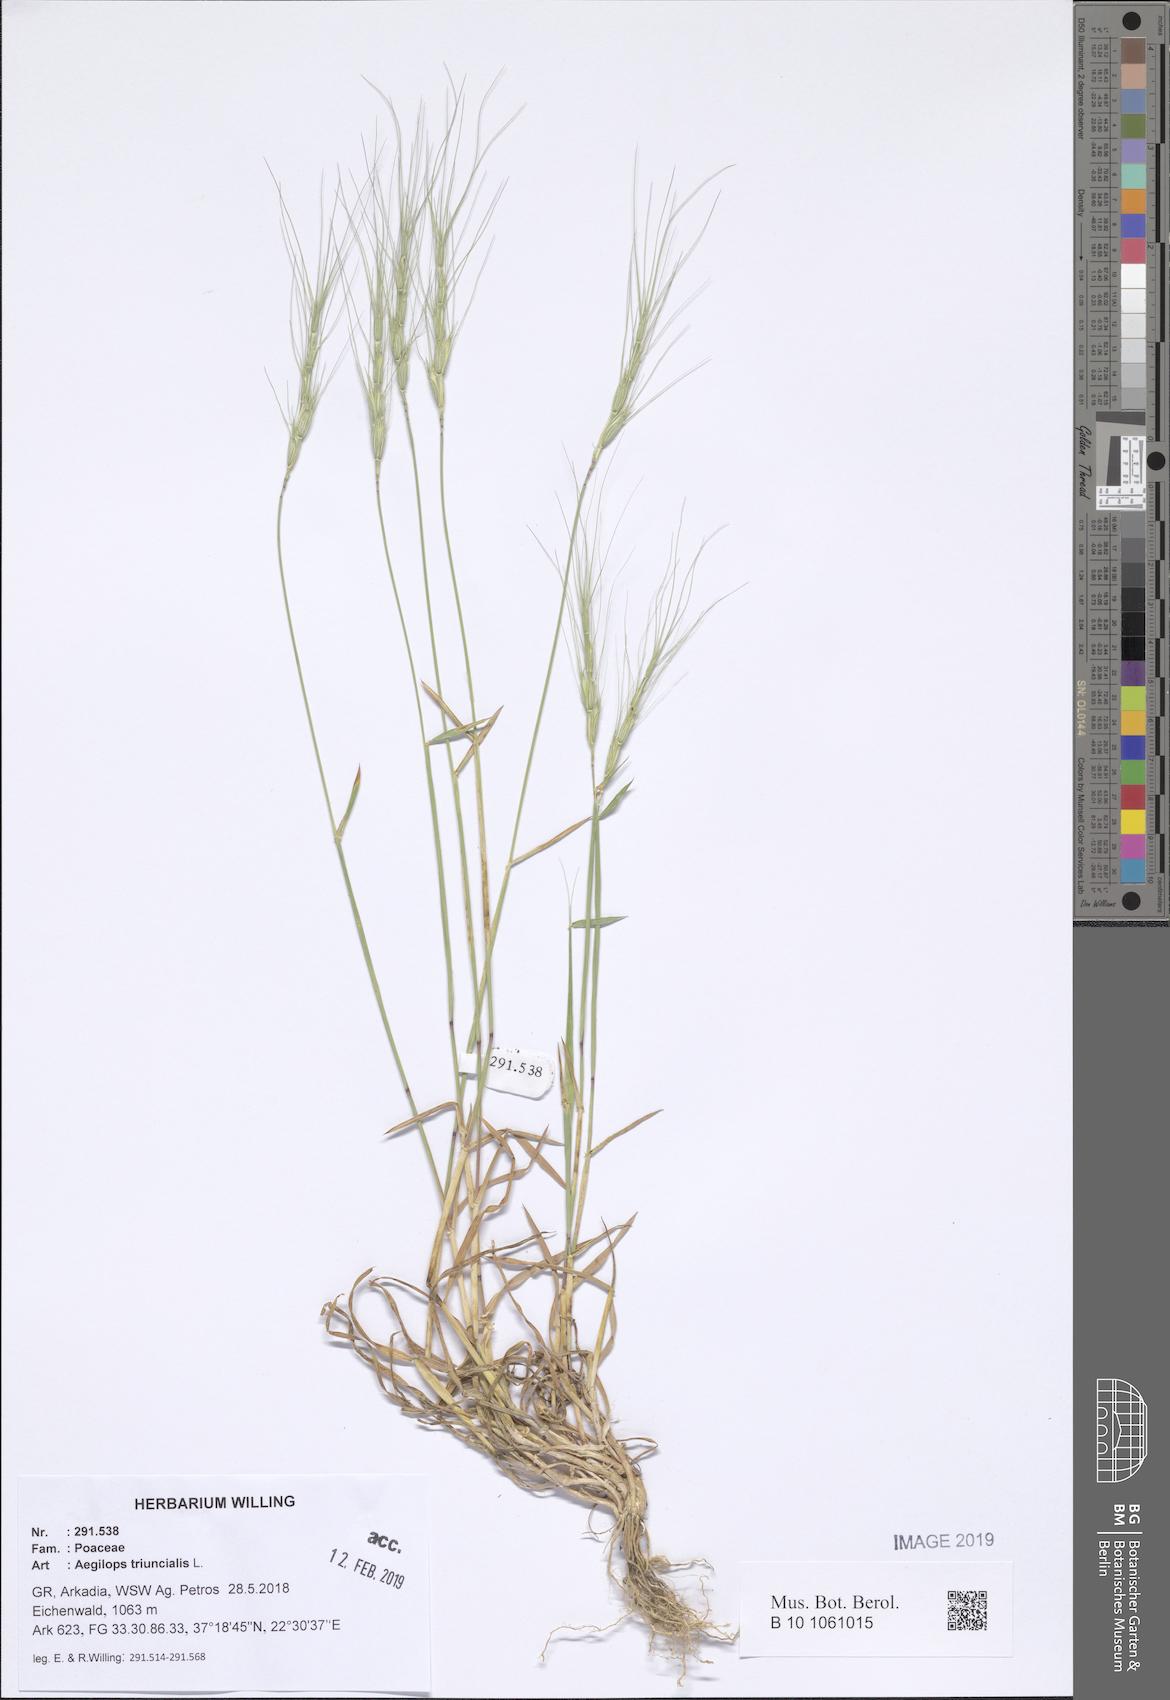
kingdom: Plantae
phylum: Tracheophyta
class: Liliopsida
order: Poales
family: Poaceae
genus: Aegilops
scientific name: Aegilops triuncialis
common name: Barb goat grass
